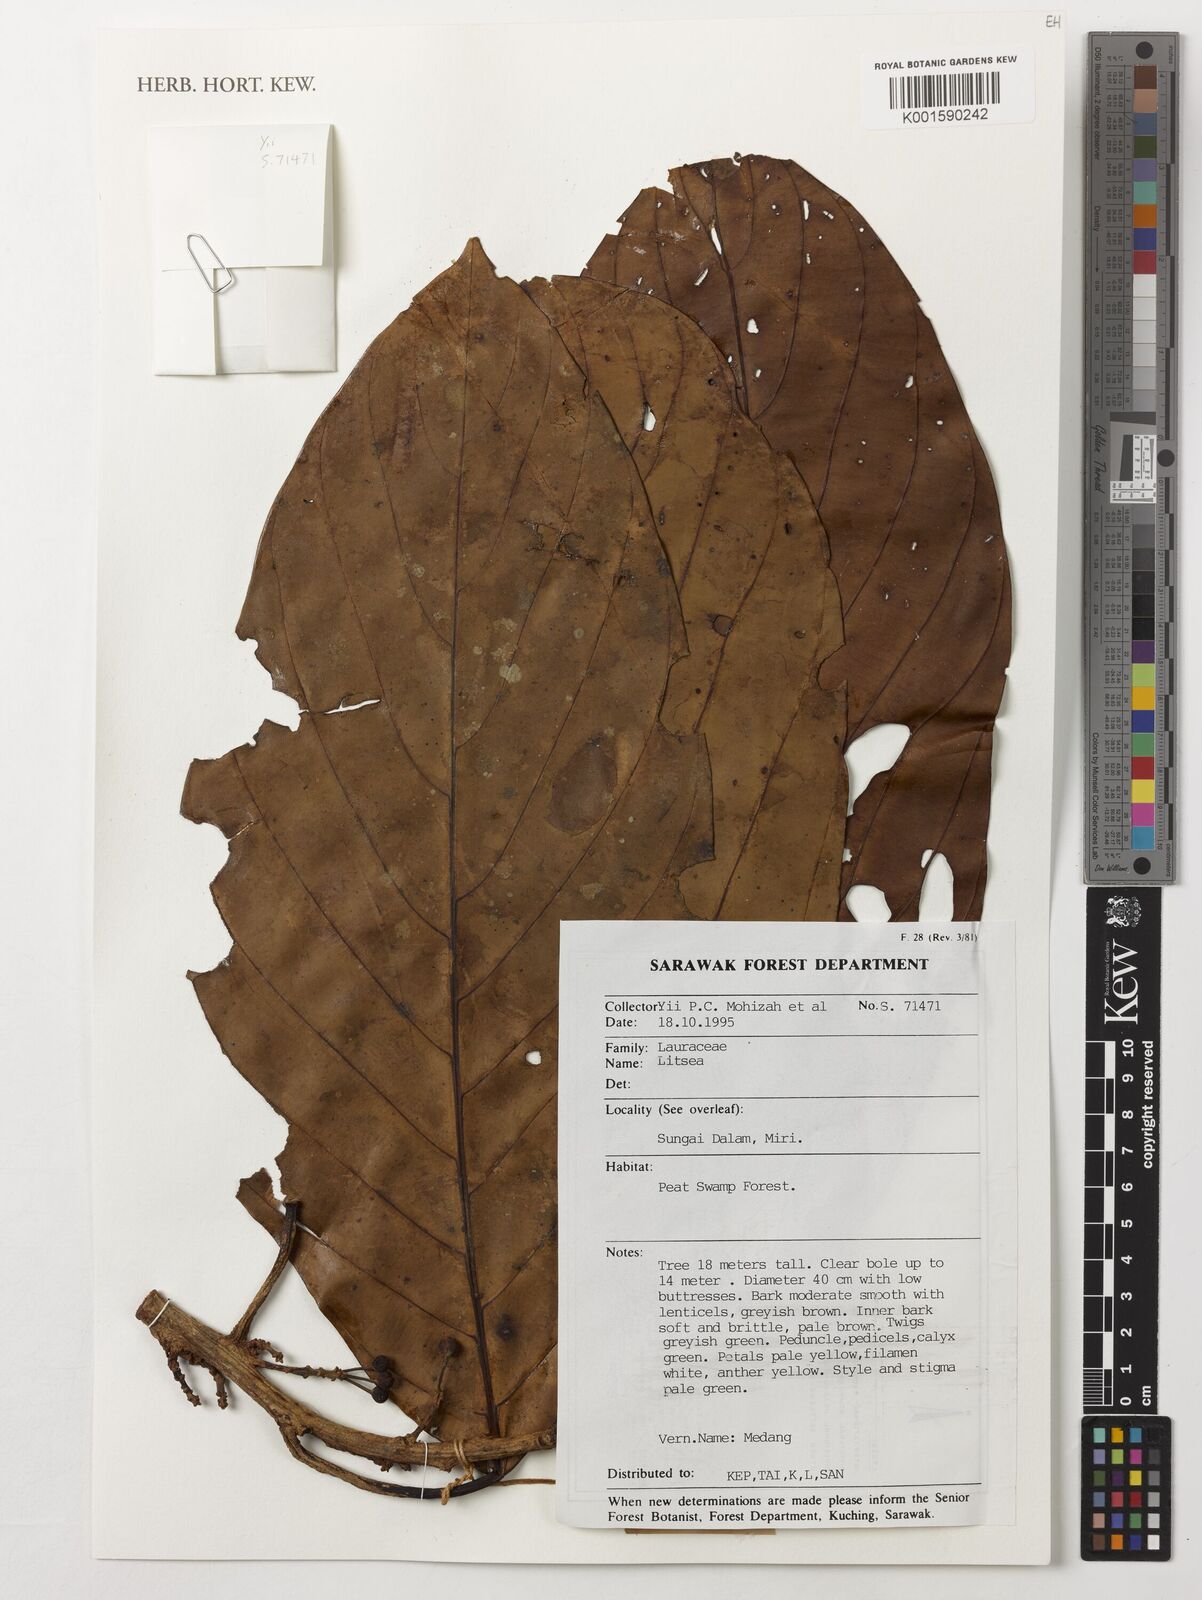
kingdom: Plantae
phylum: Tracheophyta
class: Magnoliopsida
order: Laurales
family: Lauraceae
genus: Litsea
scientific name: Litsea
